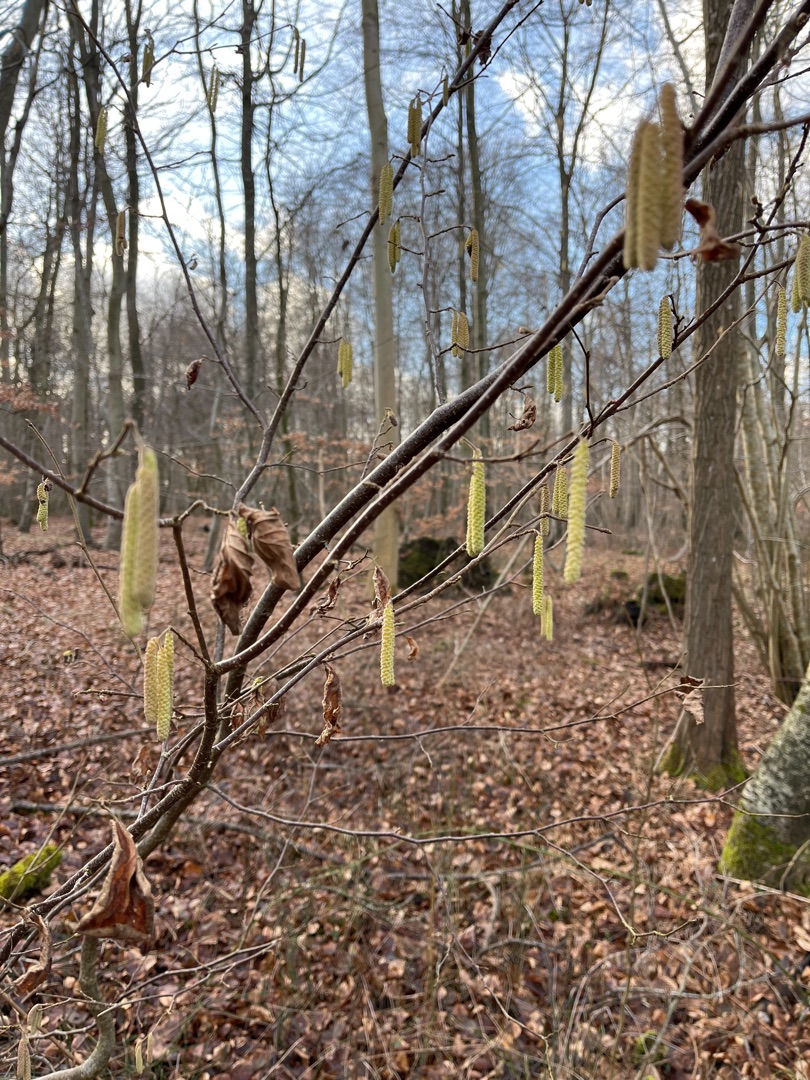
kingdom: Plantae
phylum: Tracheophyta
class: Magnoliopsida
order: Fagales
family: Betulaceae
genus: Corylus
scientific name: Corylus avellana
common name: Hassel
